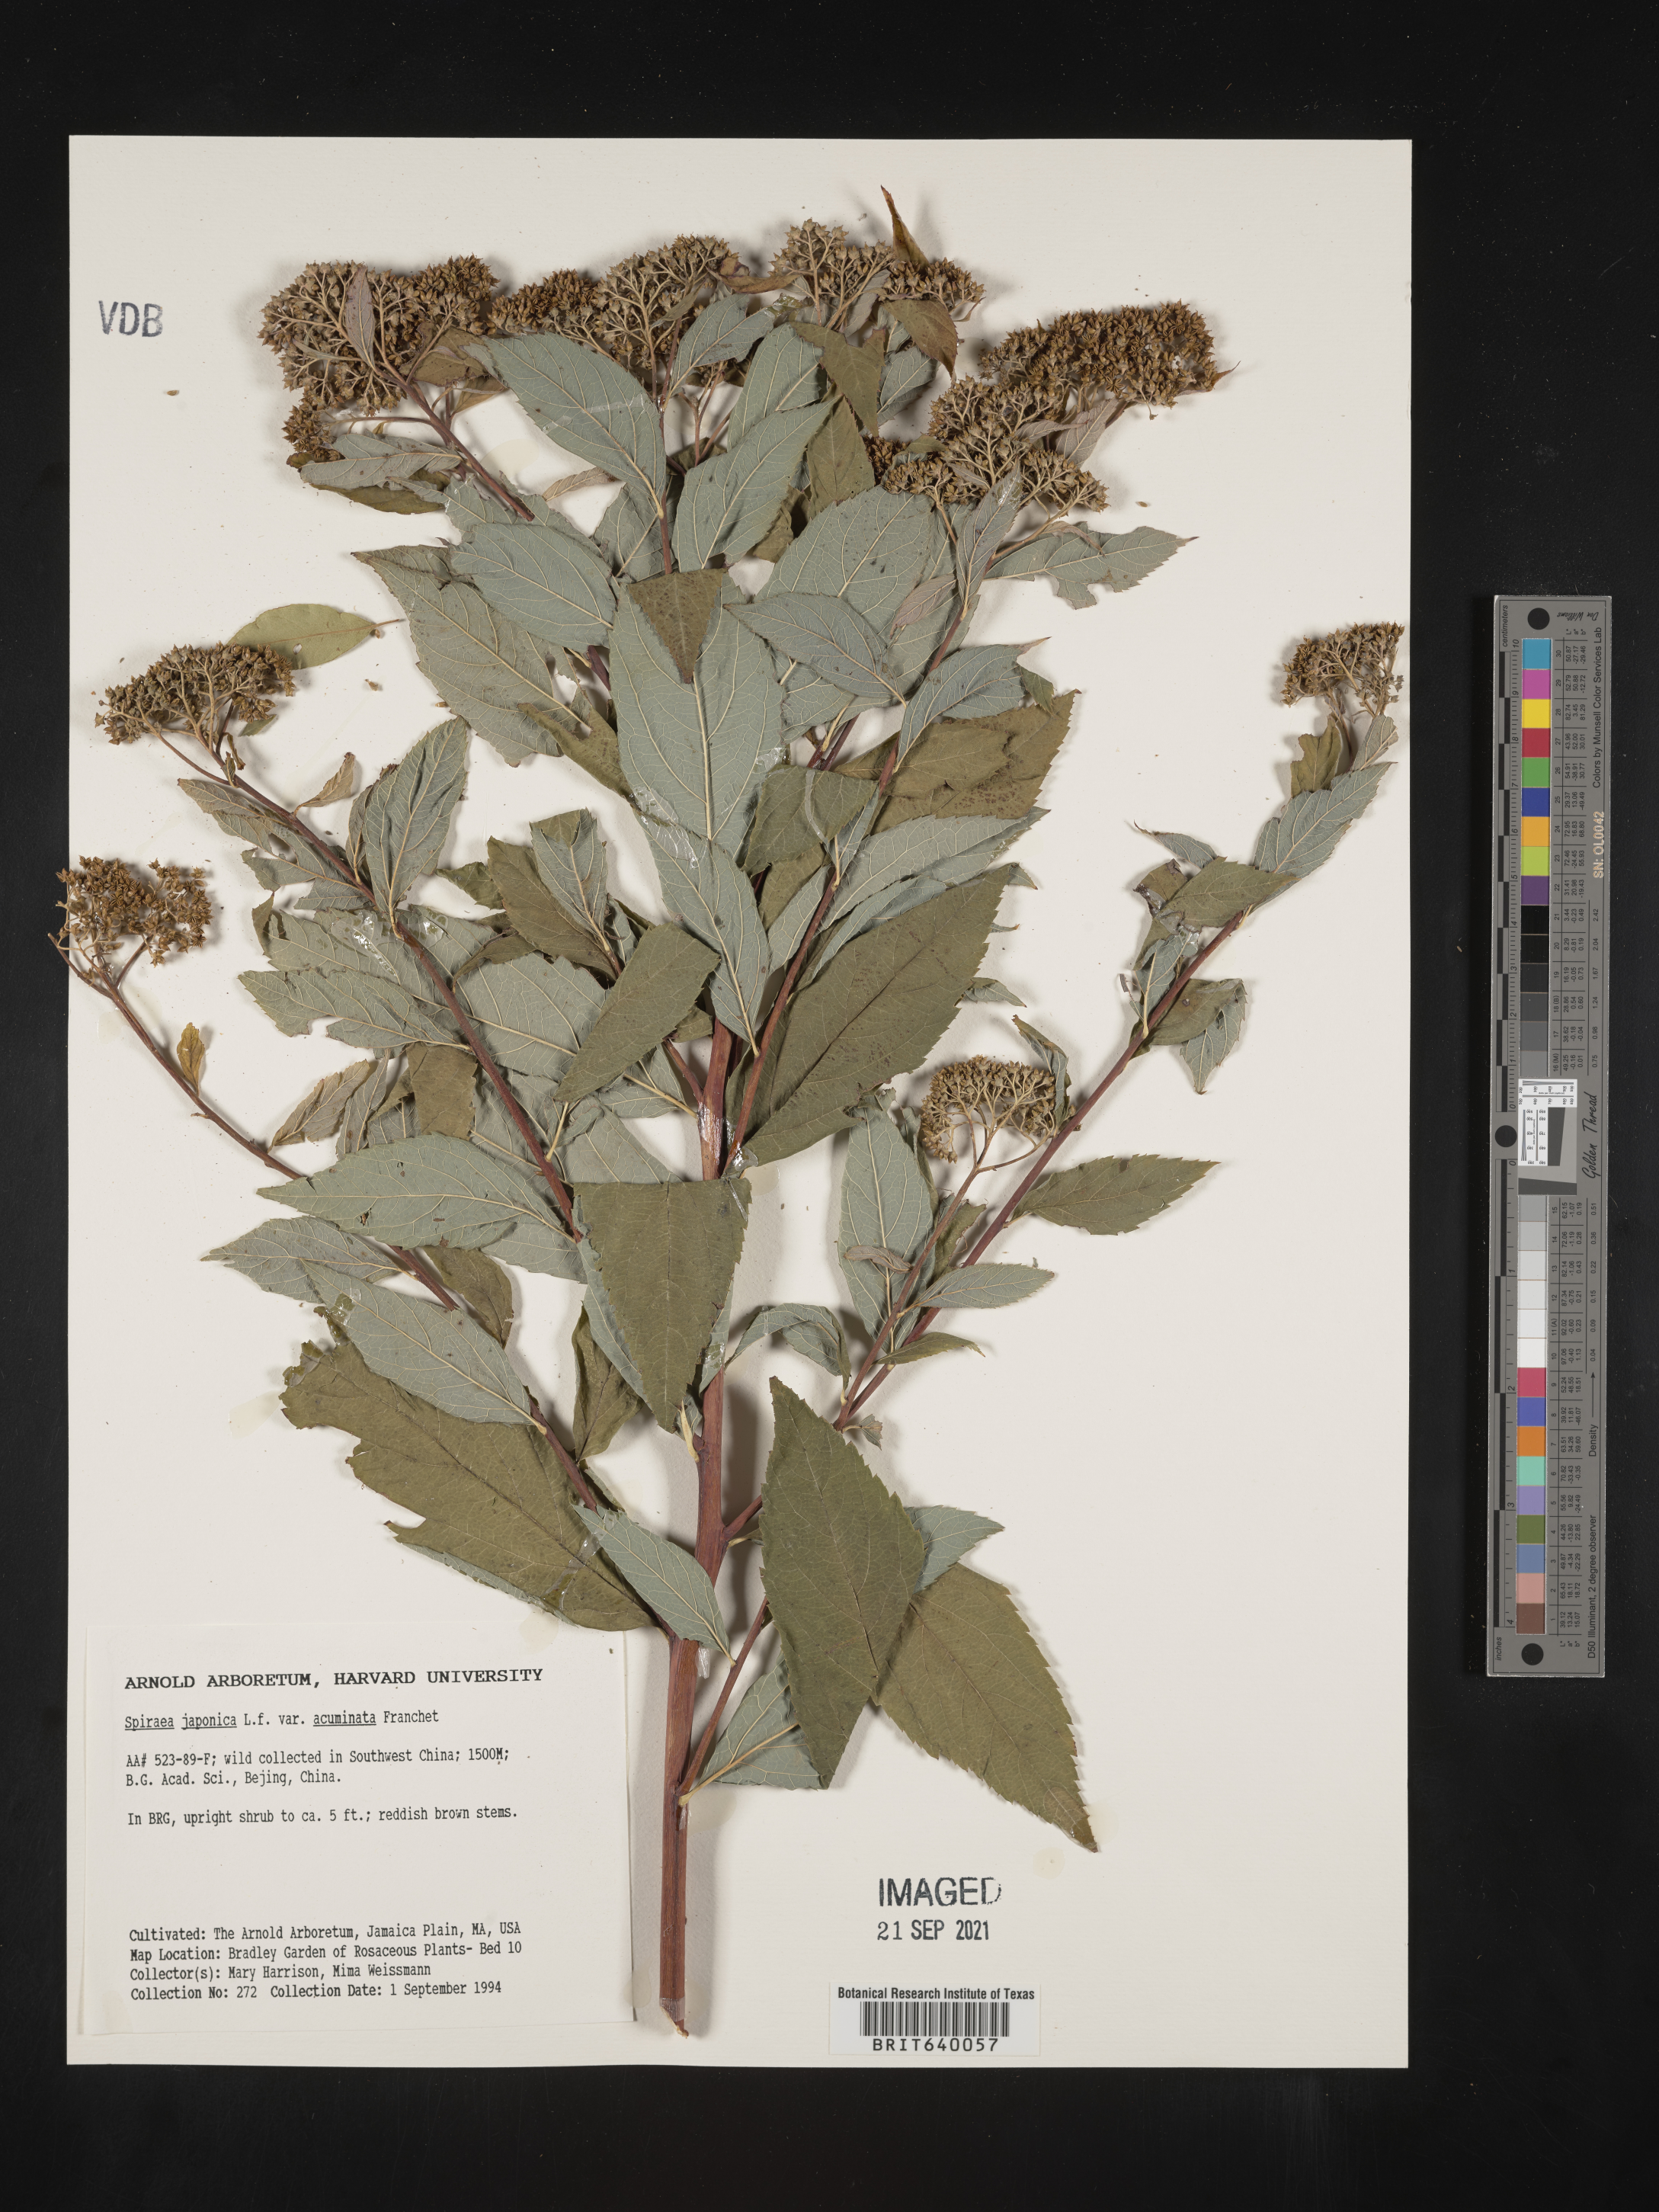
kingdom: Plantae
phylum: Tracheophyta
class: Magnoliopsida
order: Rosales
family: Rosaceae
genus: Spiraea
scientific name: Spiraea
